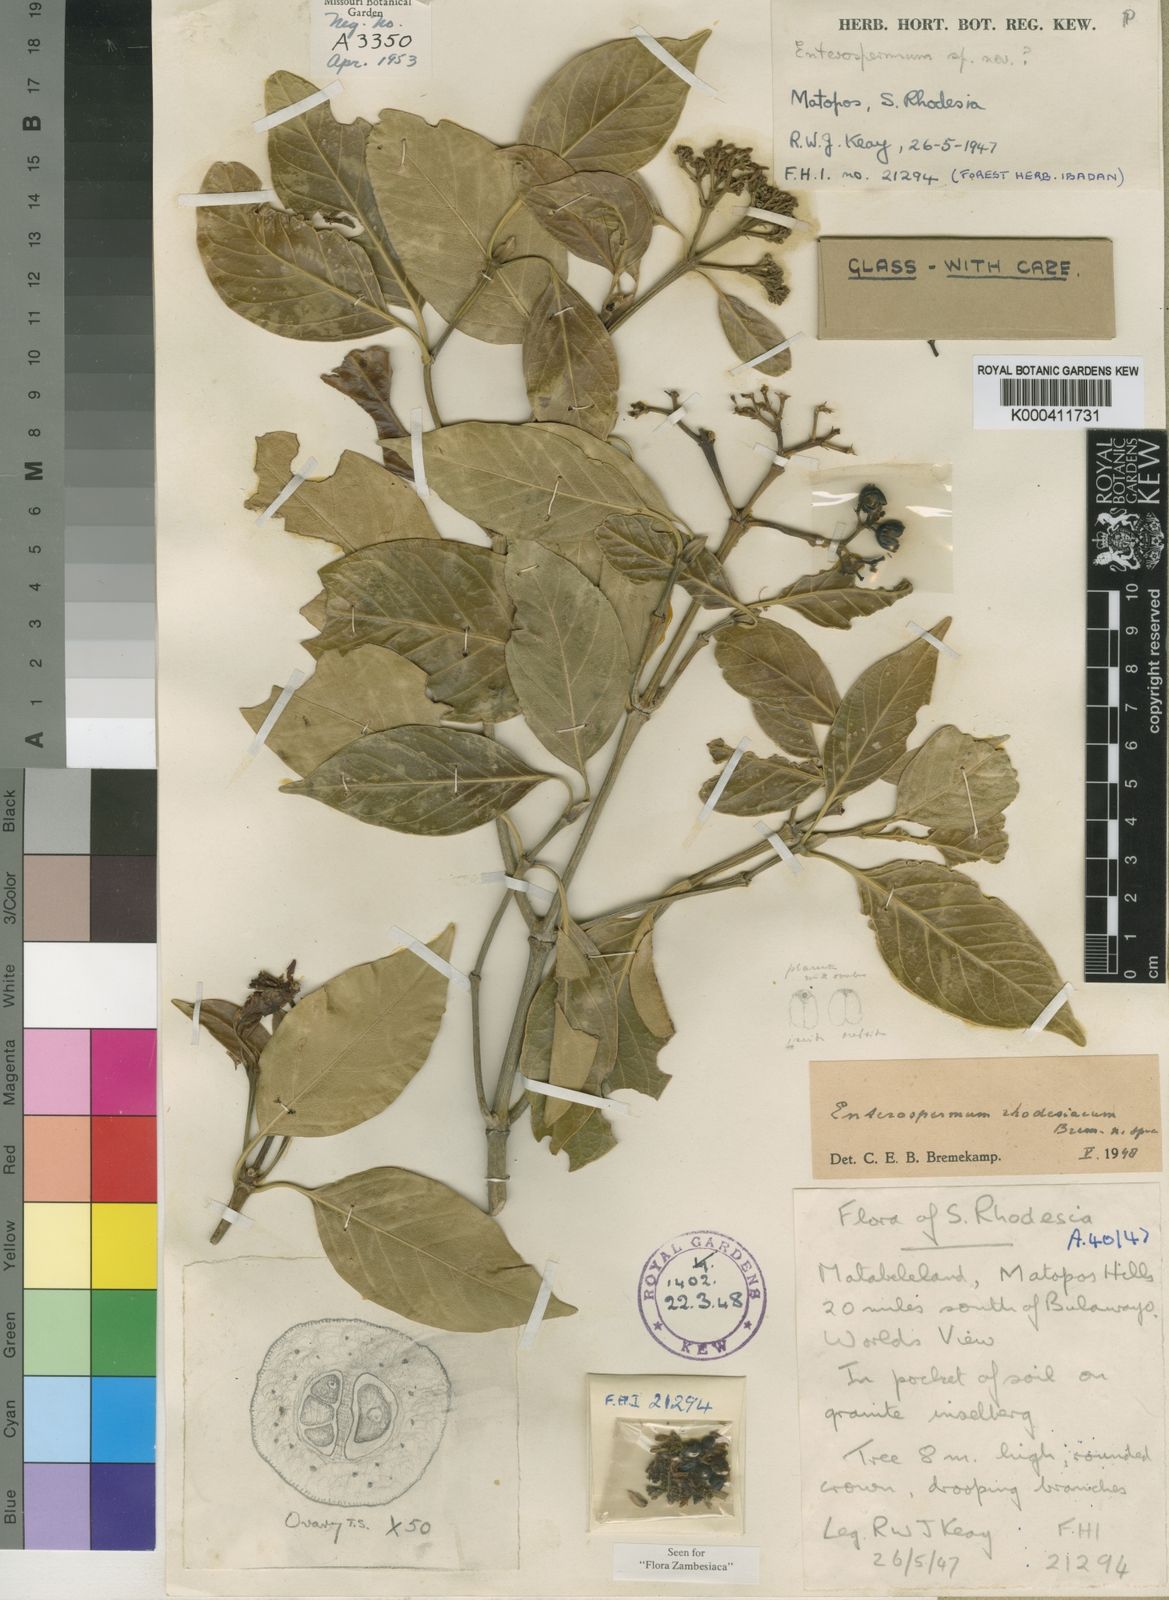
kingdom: Plantae
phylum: Tracheophyta
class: Magnoliopsida
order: Gentianales
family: Rubiaceae
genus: Coptosperma
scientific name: Coptosperma rhodesiacum
